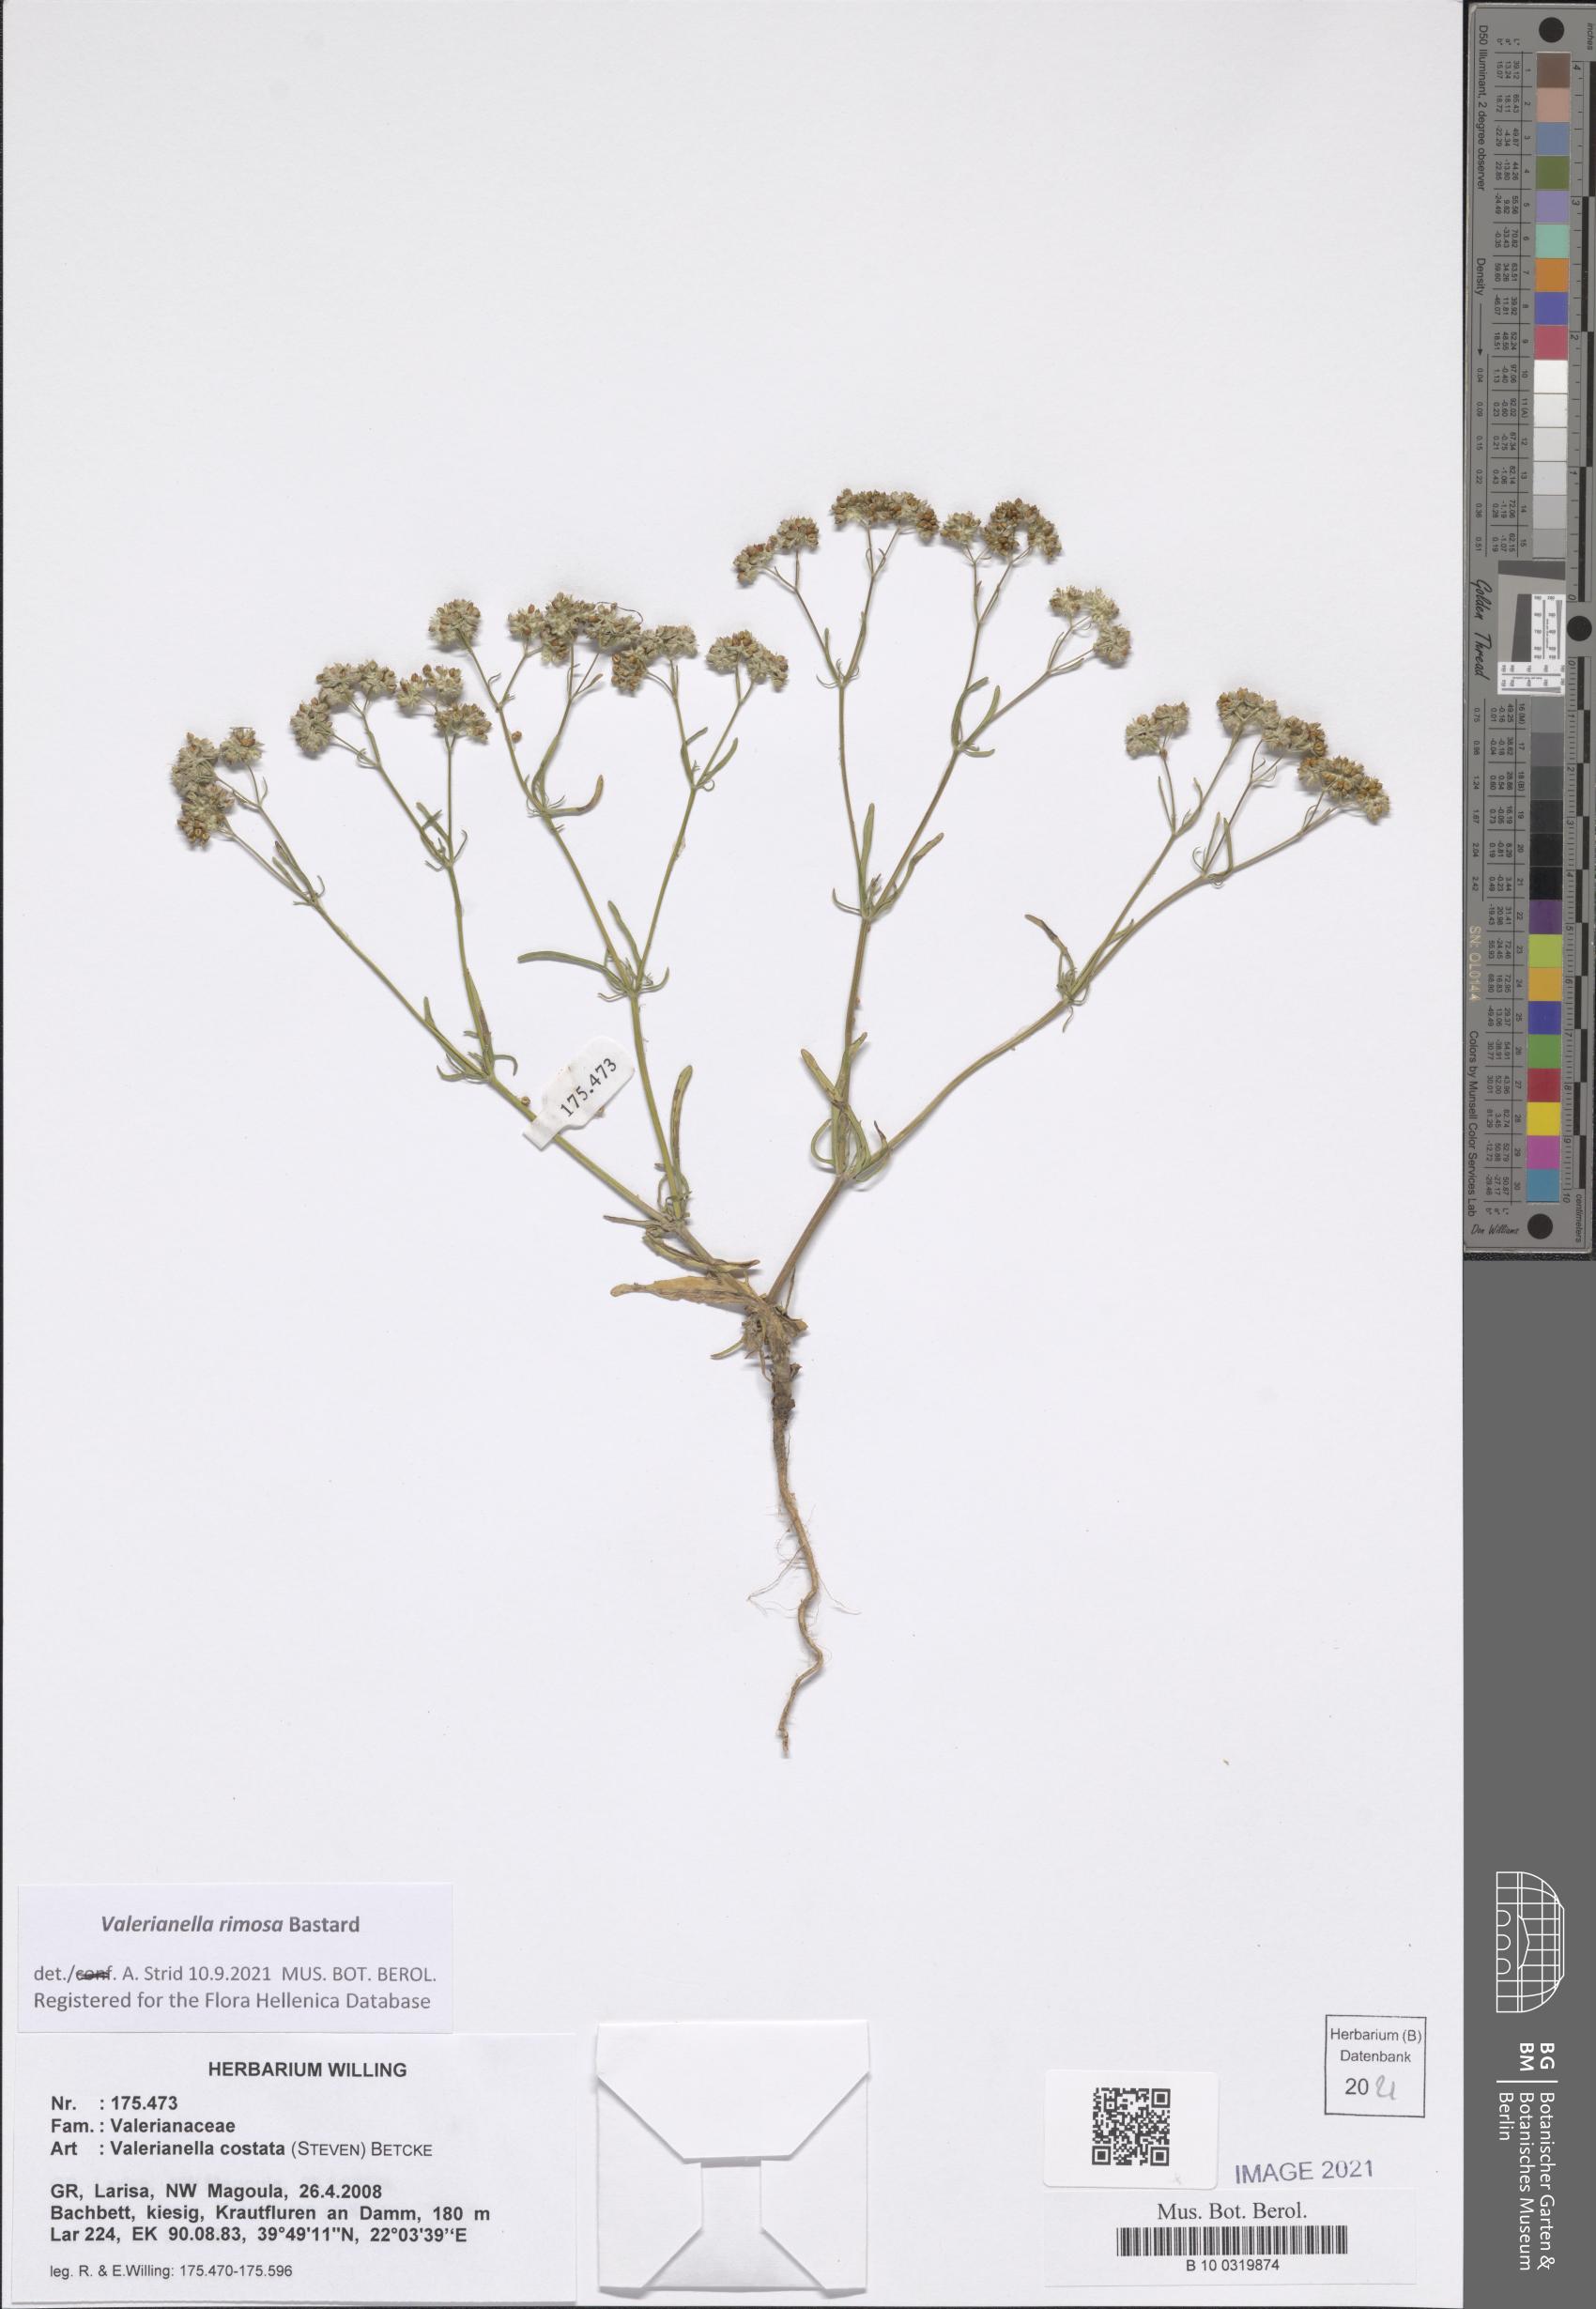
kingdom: Plantae
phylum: Tracheophyta
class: Magnoliopsida
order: Dipsacales
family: Caprifoliaceae
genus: Valerianella
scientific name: Valerianella rimosa
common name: Broad-fruited cornsalad
